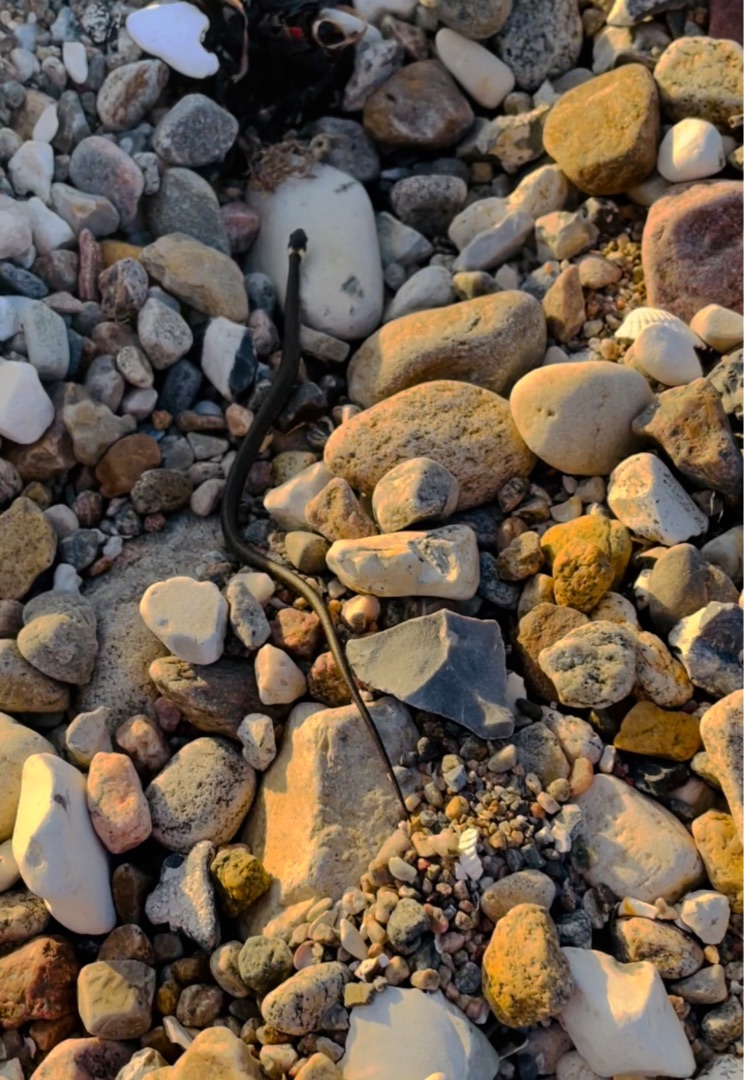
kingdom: Animalia
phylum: Chordata
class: Squamata
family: Colubridae
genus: Natrix
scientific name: Natrix natrix
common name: Snog
